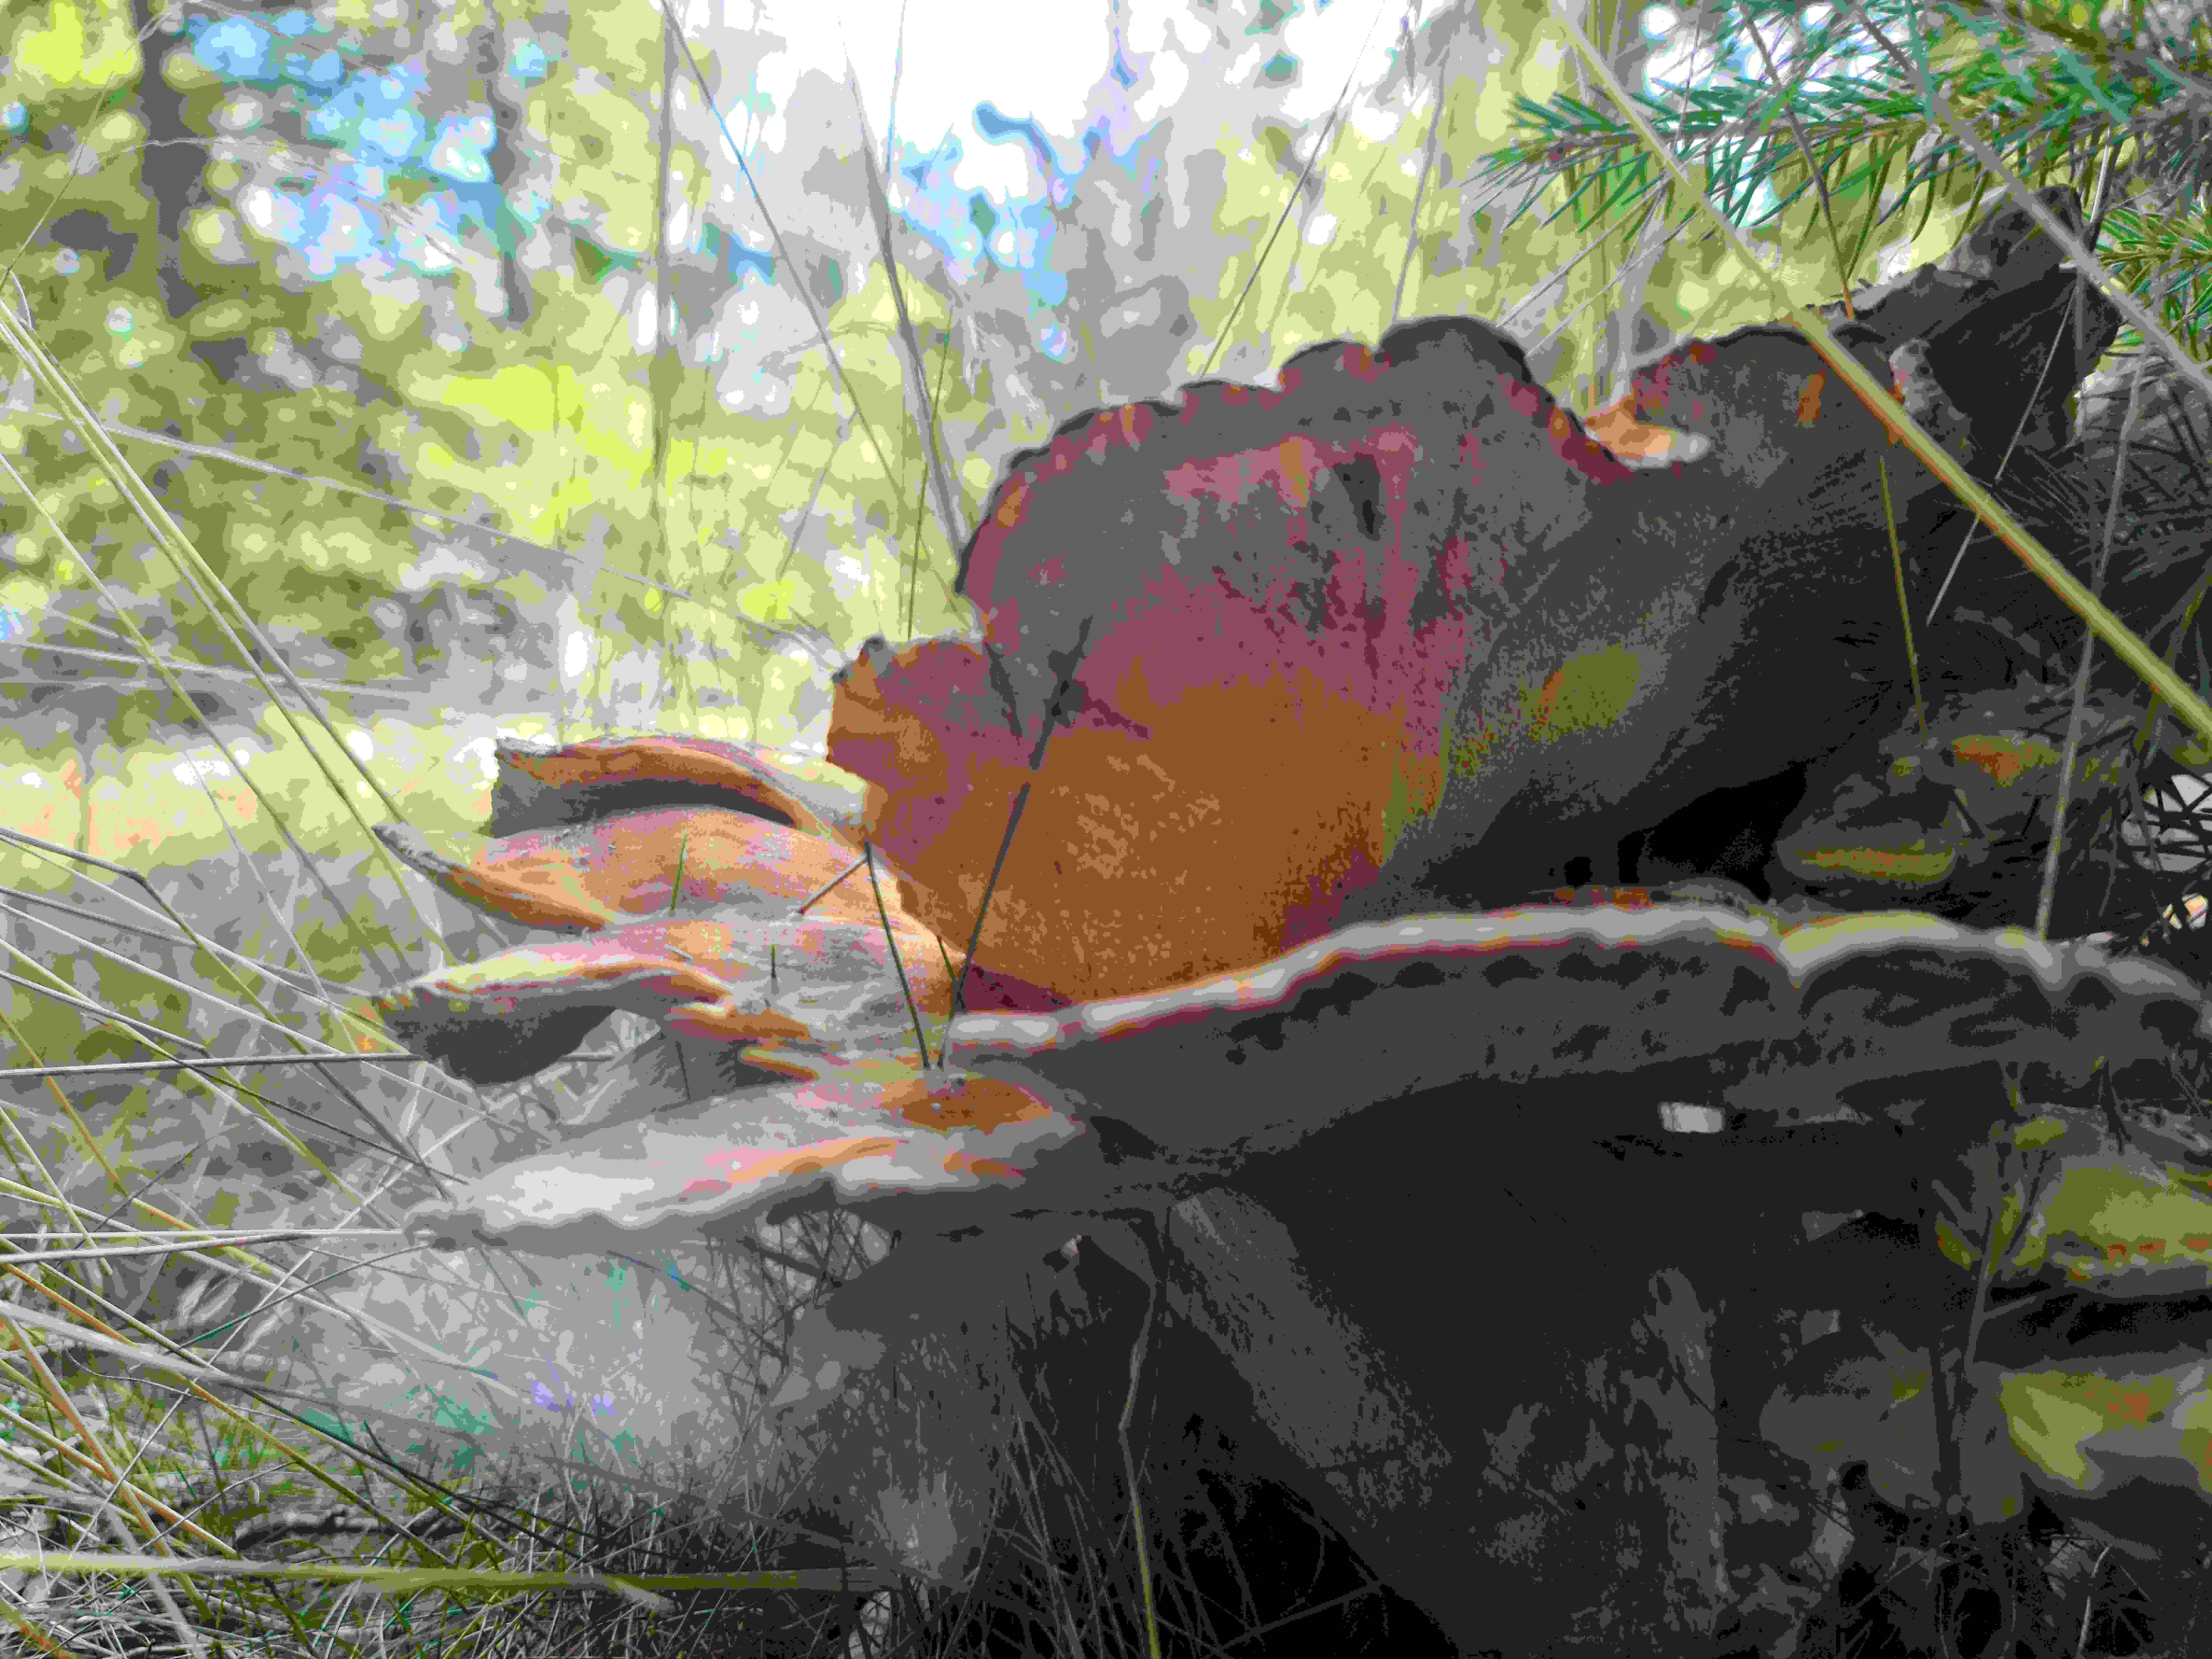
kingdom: Fungi
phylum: Basidiomycota
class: Agaricomycetes
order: Polyporales
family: Meripilaceae
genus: Meripilus
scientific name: Meripilus giganteus
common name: kæmpeporesvamp
